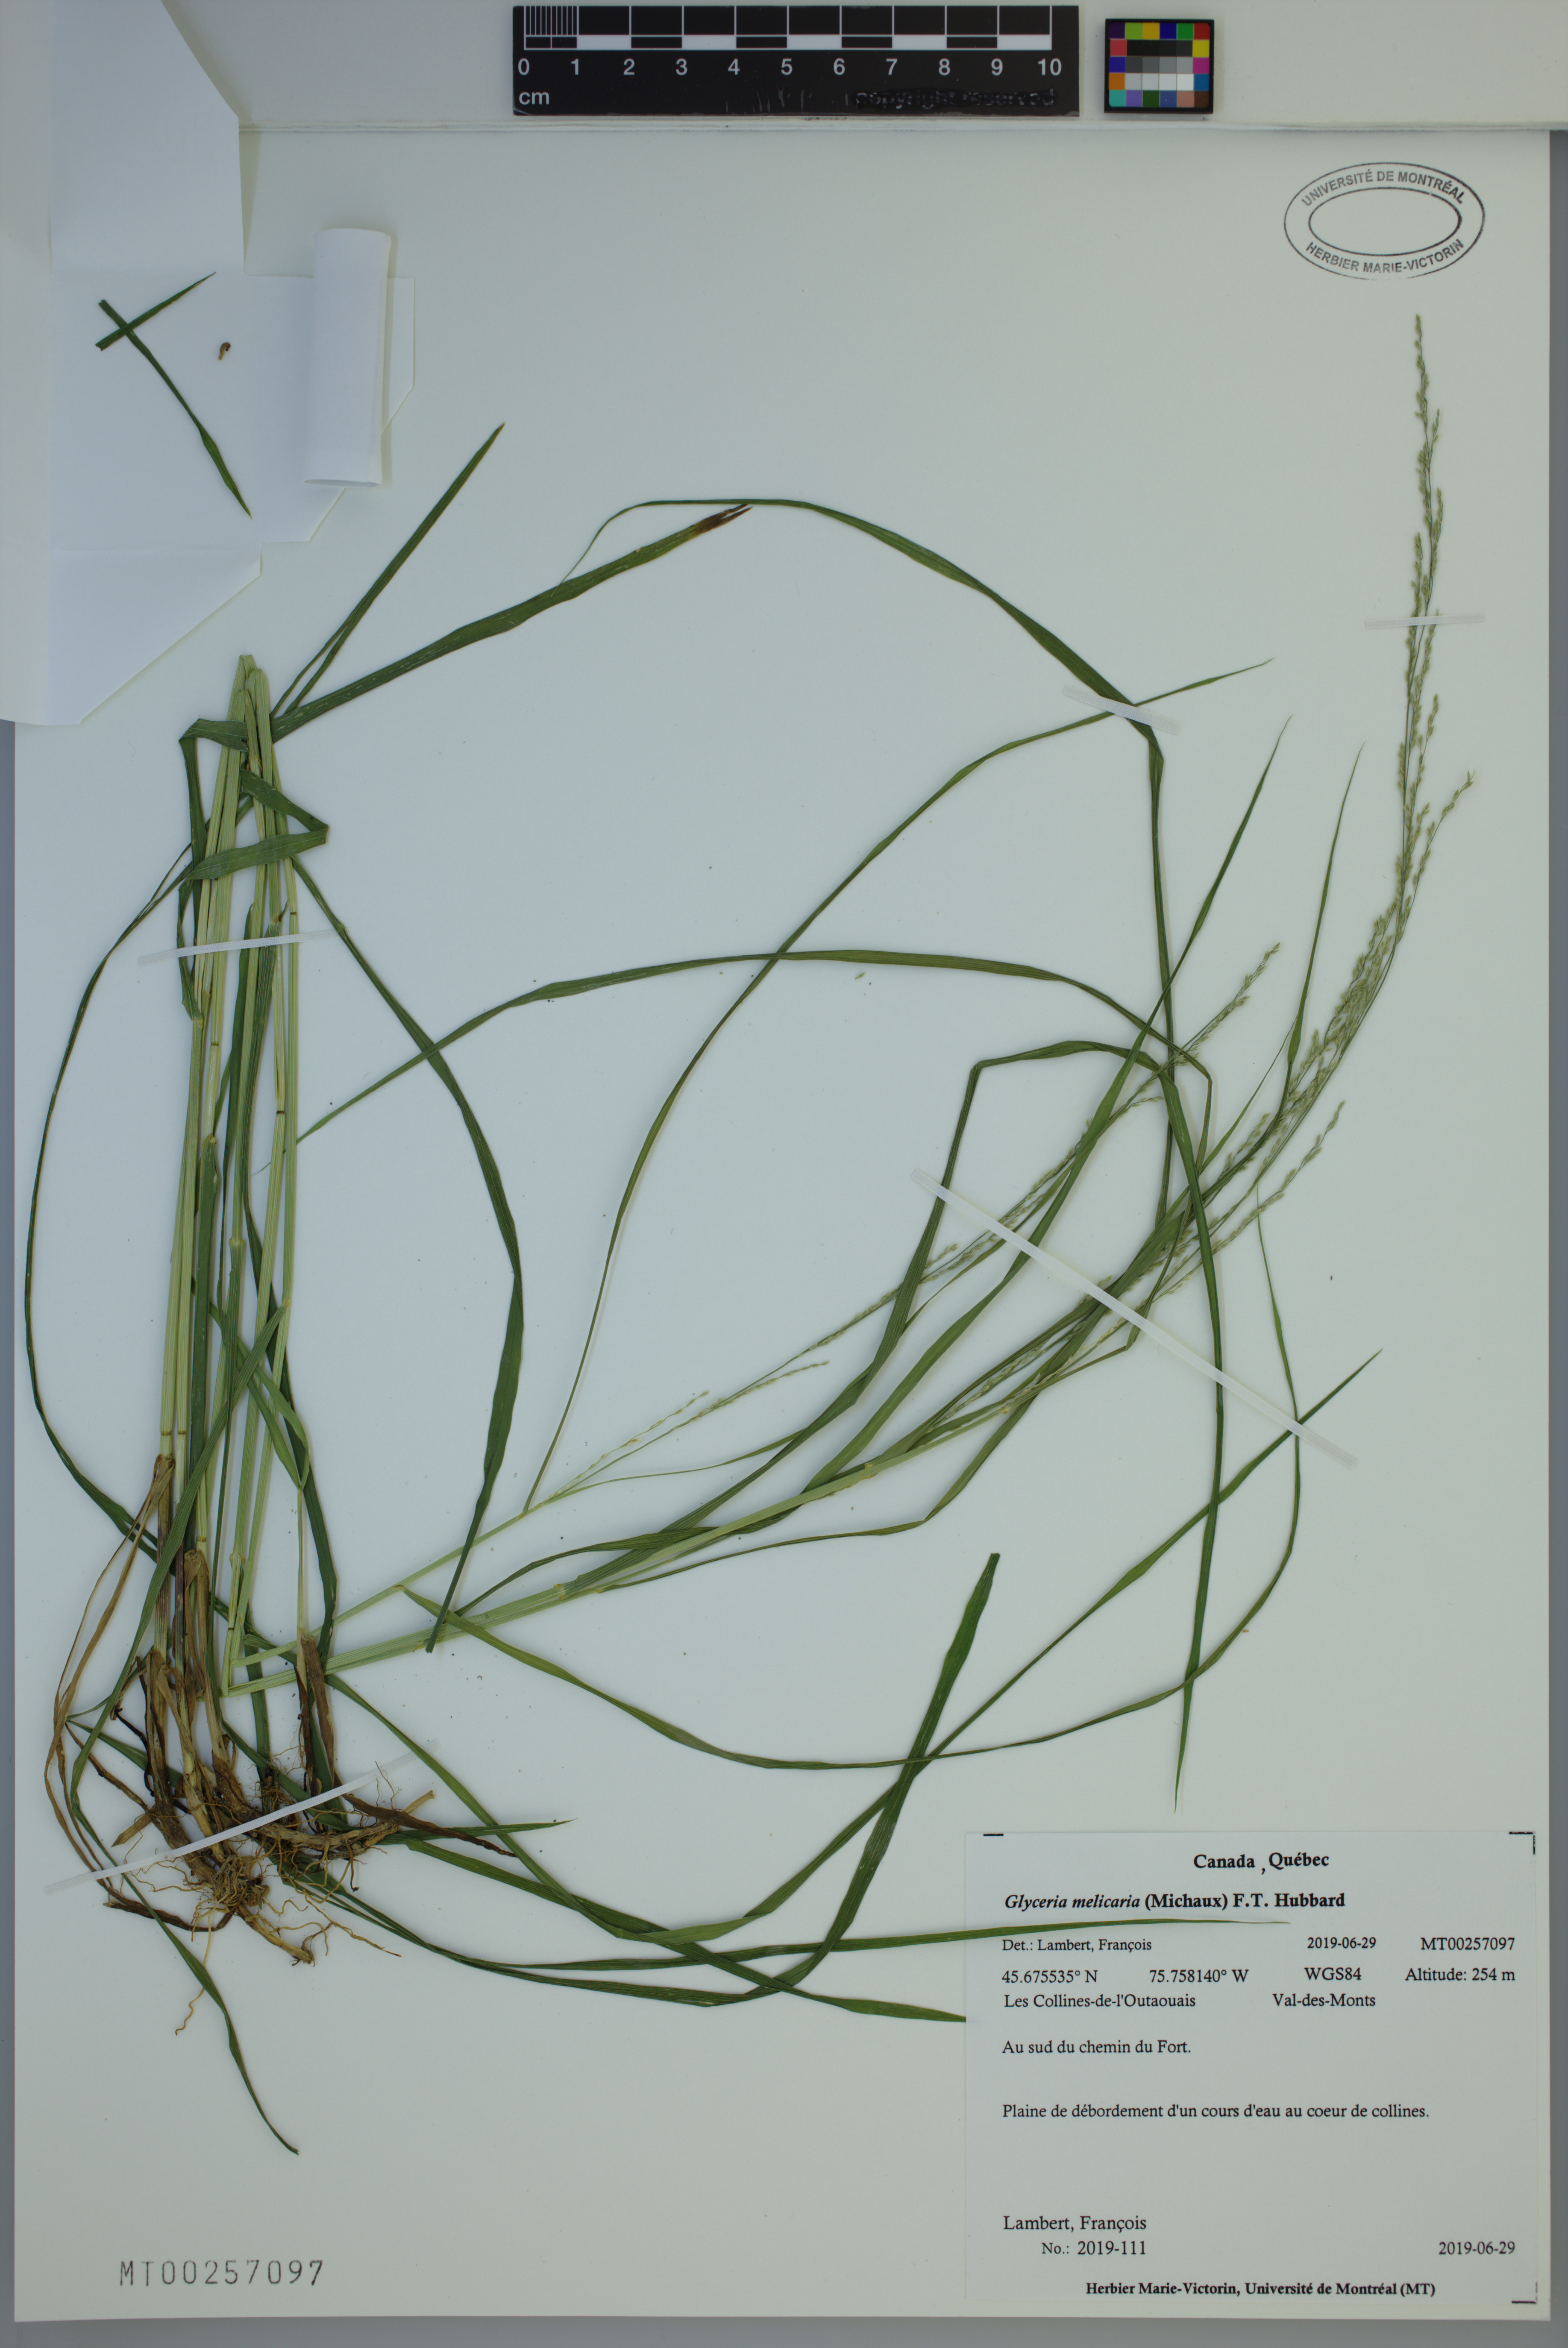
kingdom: Plantae
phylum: Tracheophyta
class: Liliopsida
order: Poales
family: Poaceae
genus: Glyceria
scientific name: Glyceria melicaria
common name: Long mannagrass
